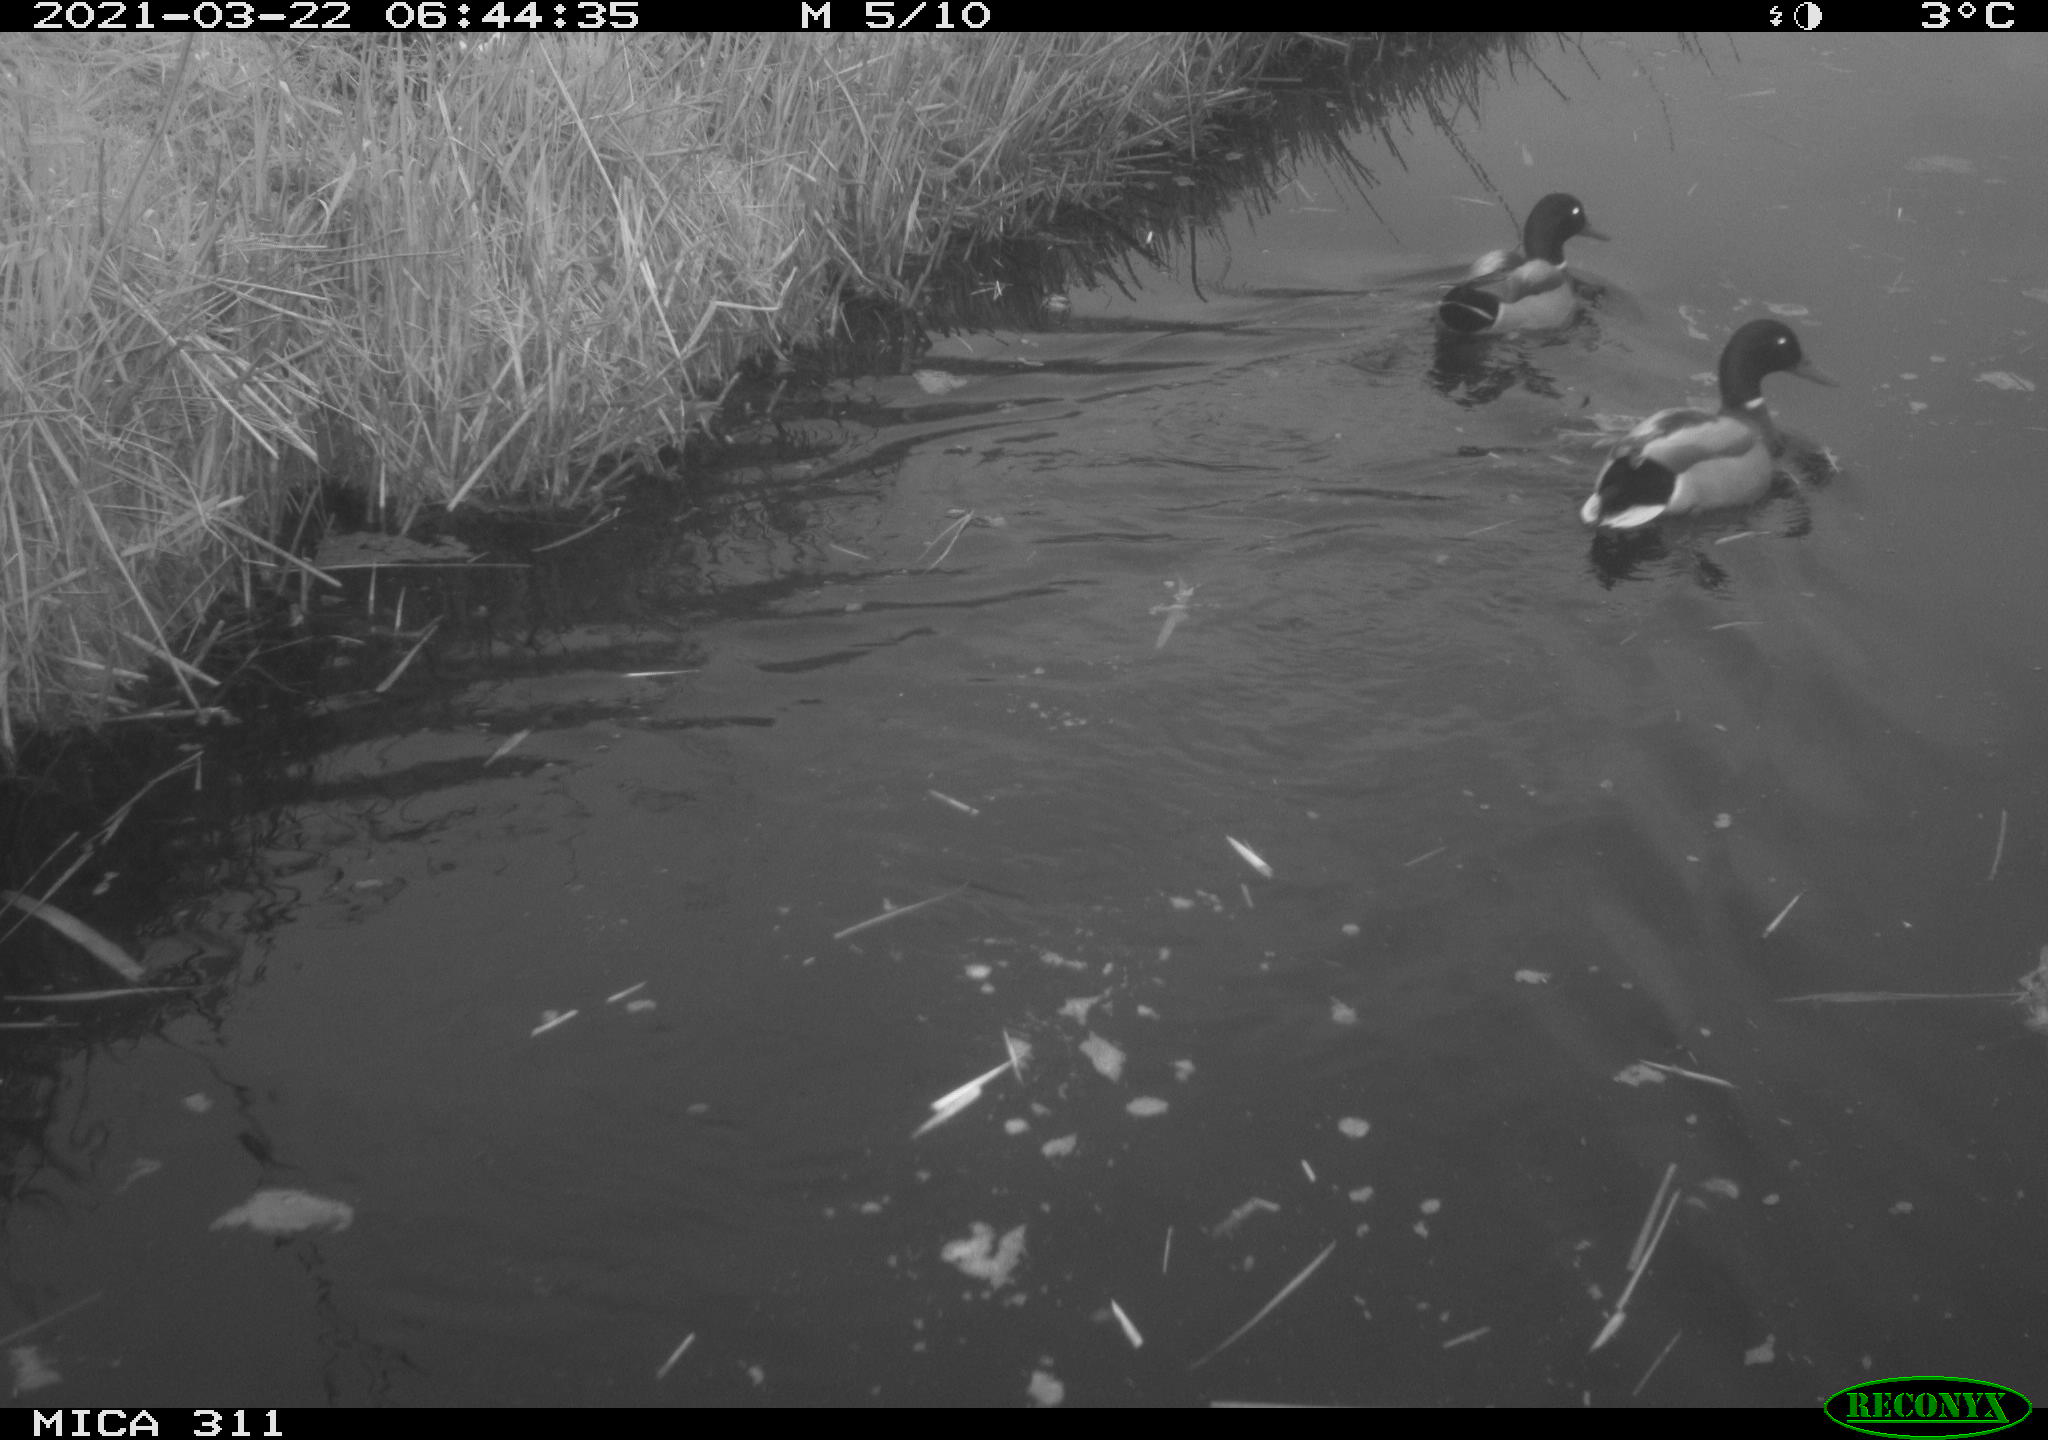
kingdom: Animalia
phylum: Chordata
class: Aves
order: Anseriformes
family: Anatidae
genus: Anas
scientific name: Anas
